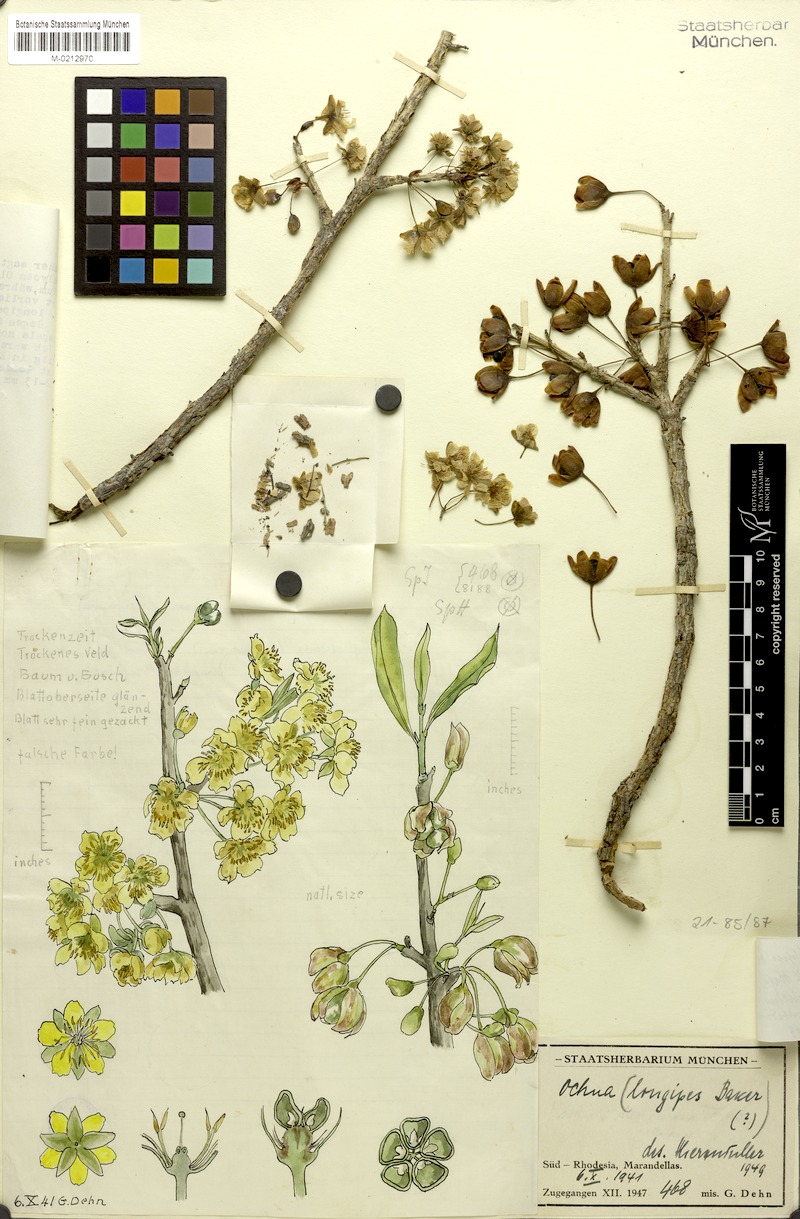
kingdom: Plantae
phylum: Tracheophyta
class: Magnoliopsida
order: Malpighiales
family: Ochnaceae
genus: Ochna
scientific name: Ochna holstii
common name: Red ironwood
